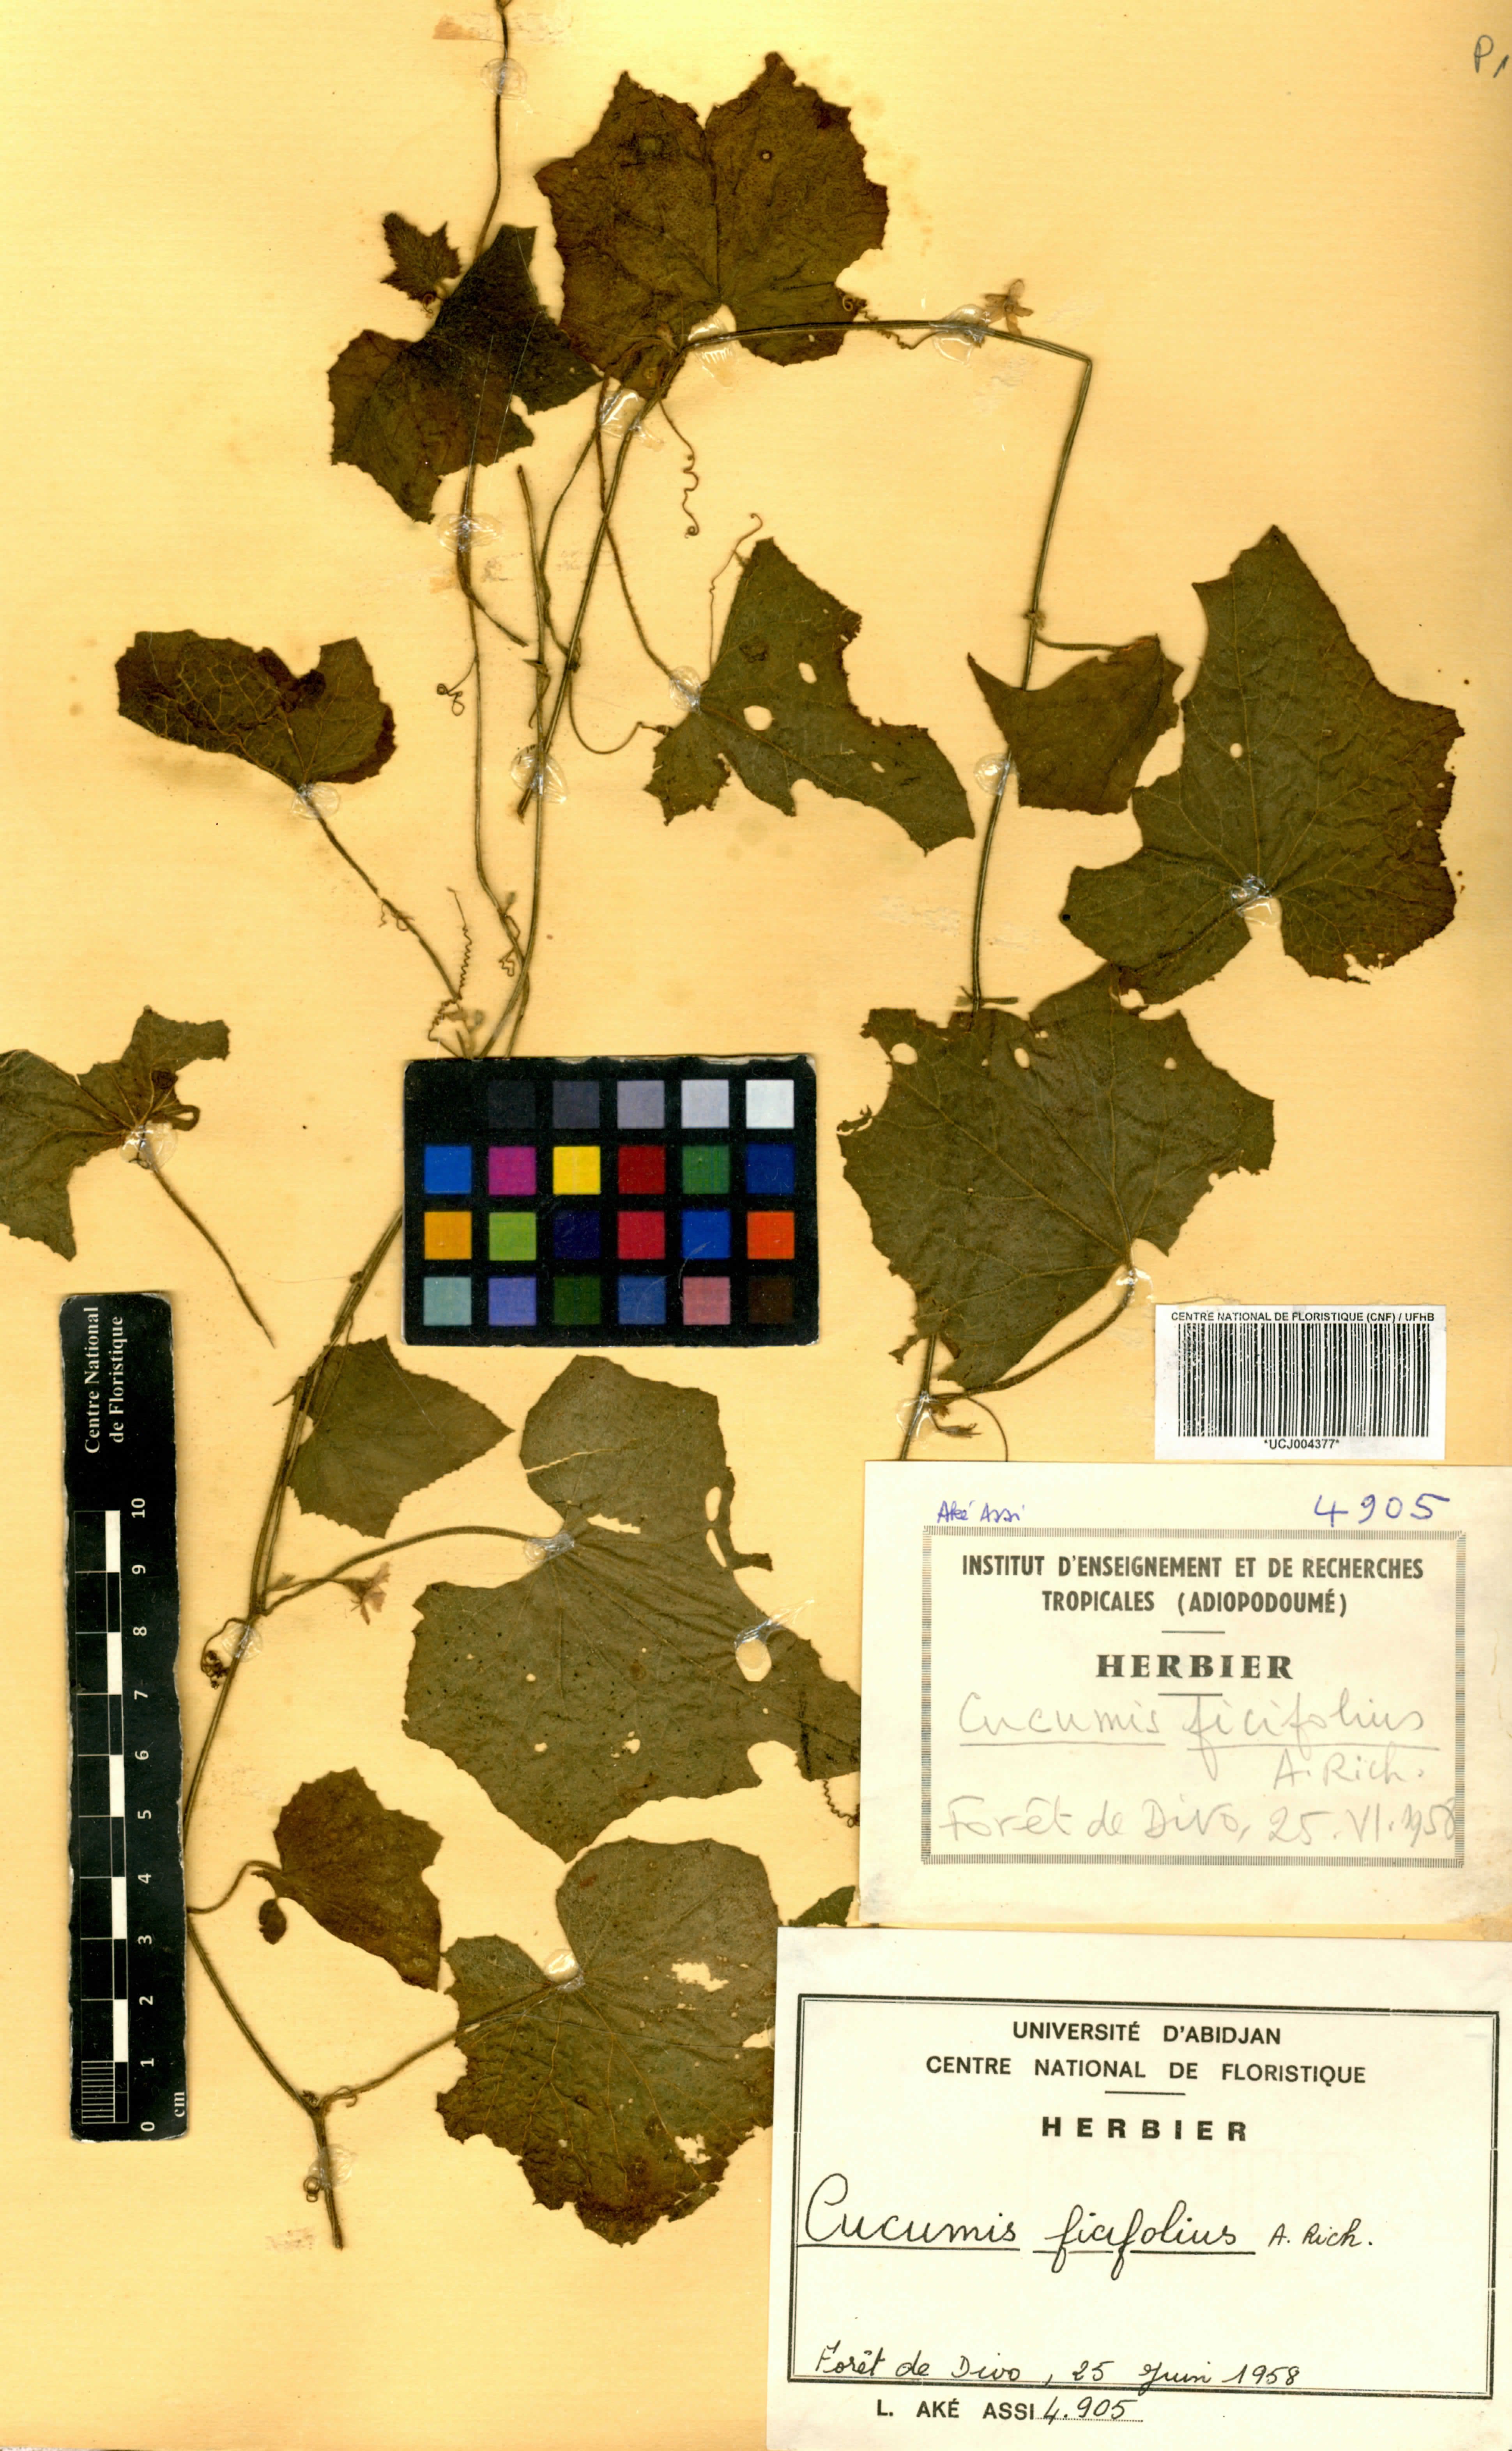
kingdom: Plantae
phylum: Tracheophyta
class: Magnoliopsida
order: Cucurbitales
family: Cucurbitaceae
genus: Cucumis
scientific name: Cucumis ficifolius
